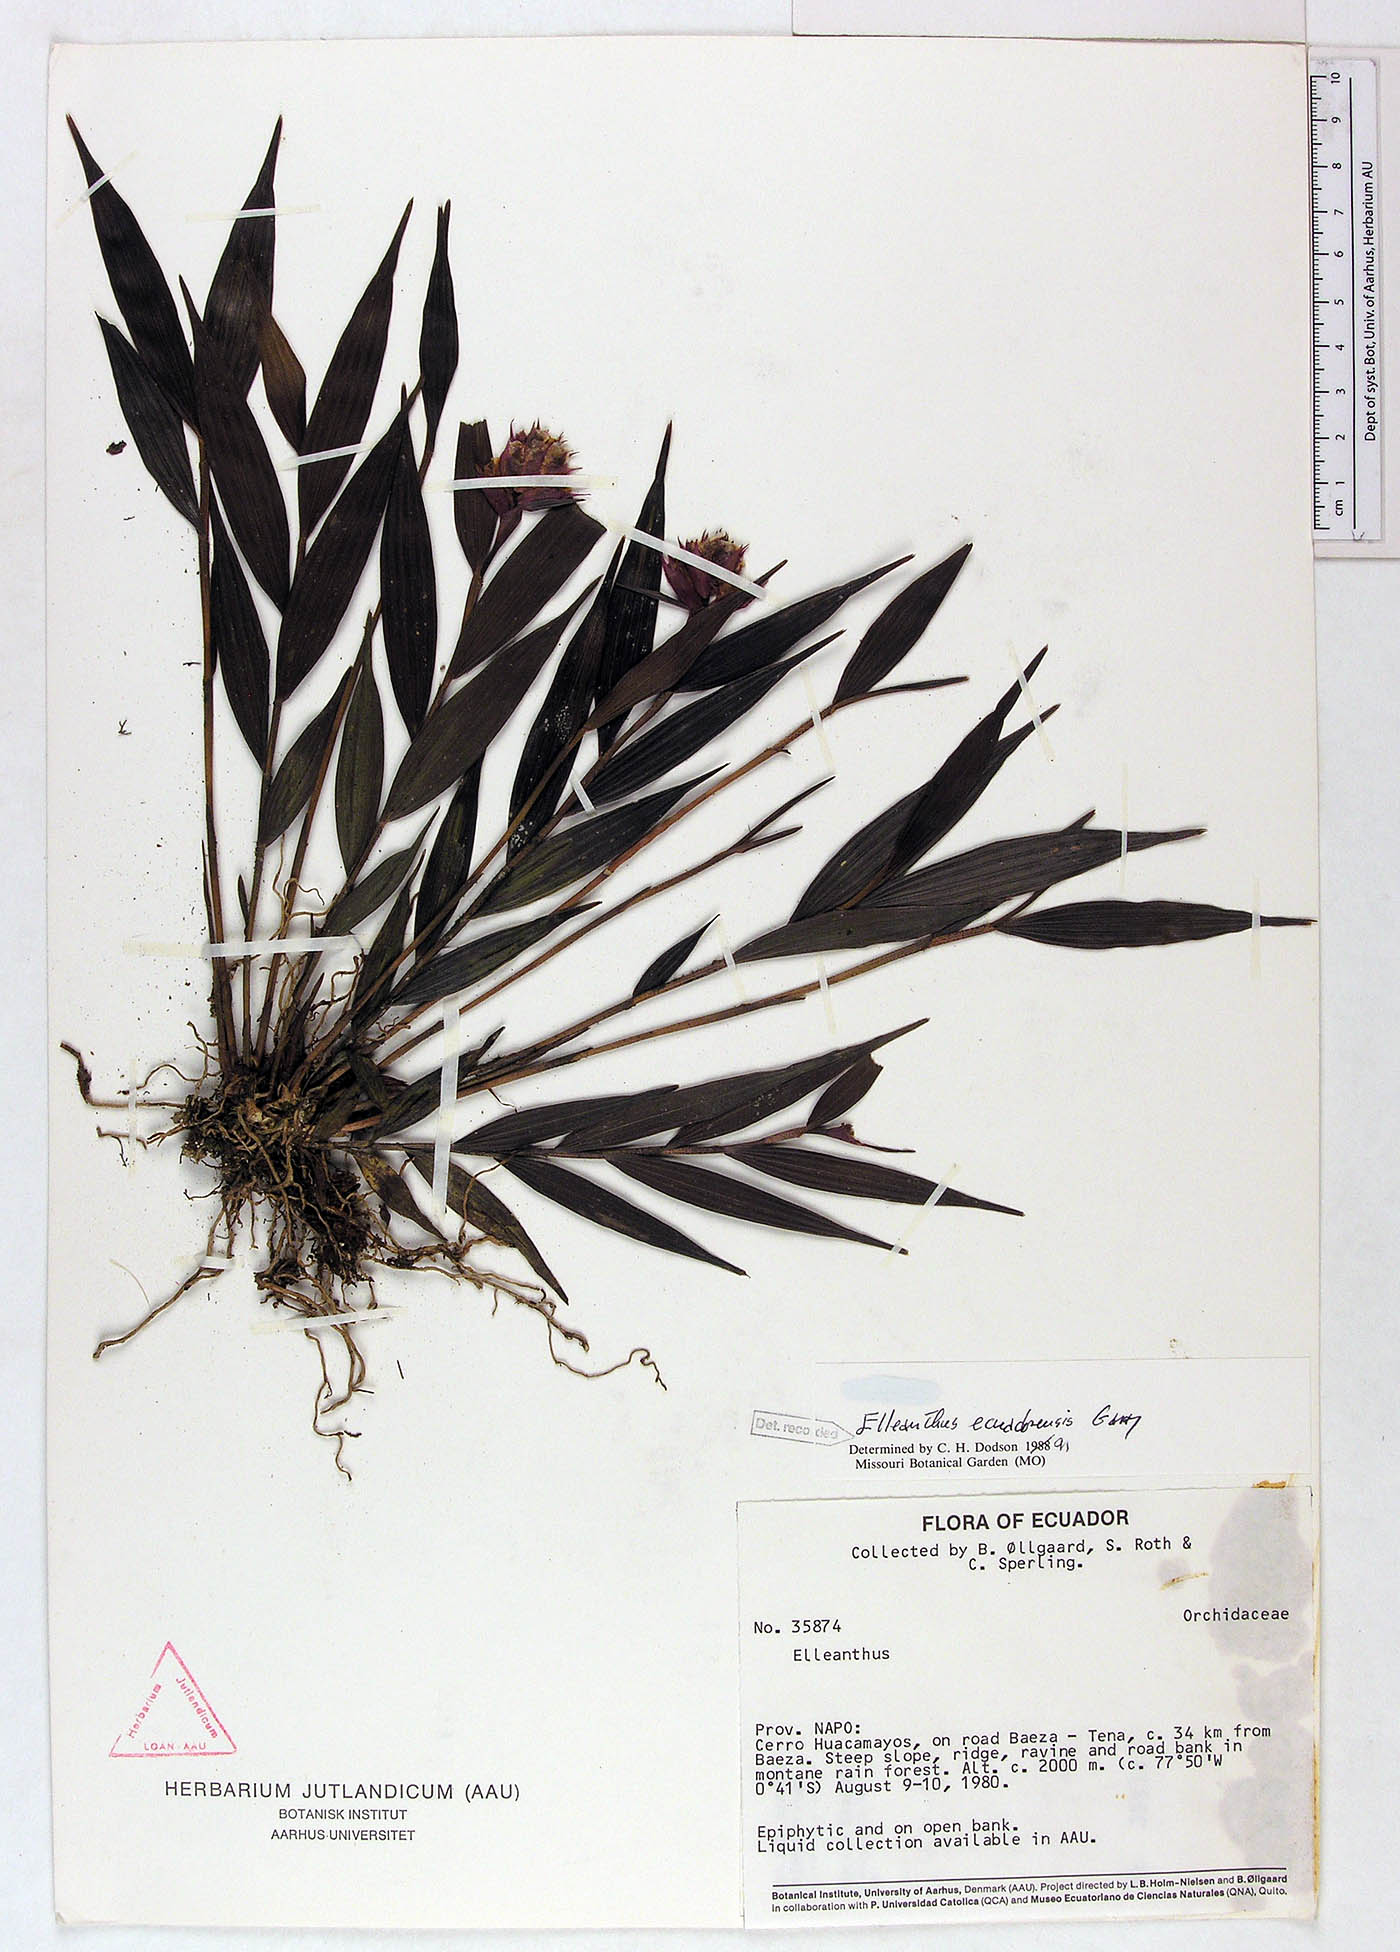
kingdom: Plantae
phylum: Tracheophyta
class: Liliopsida
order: Asparagales
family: Orchidaceae
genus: Elleanthus
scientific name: Elleanthus ecuadorensis
